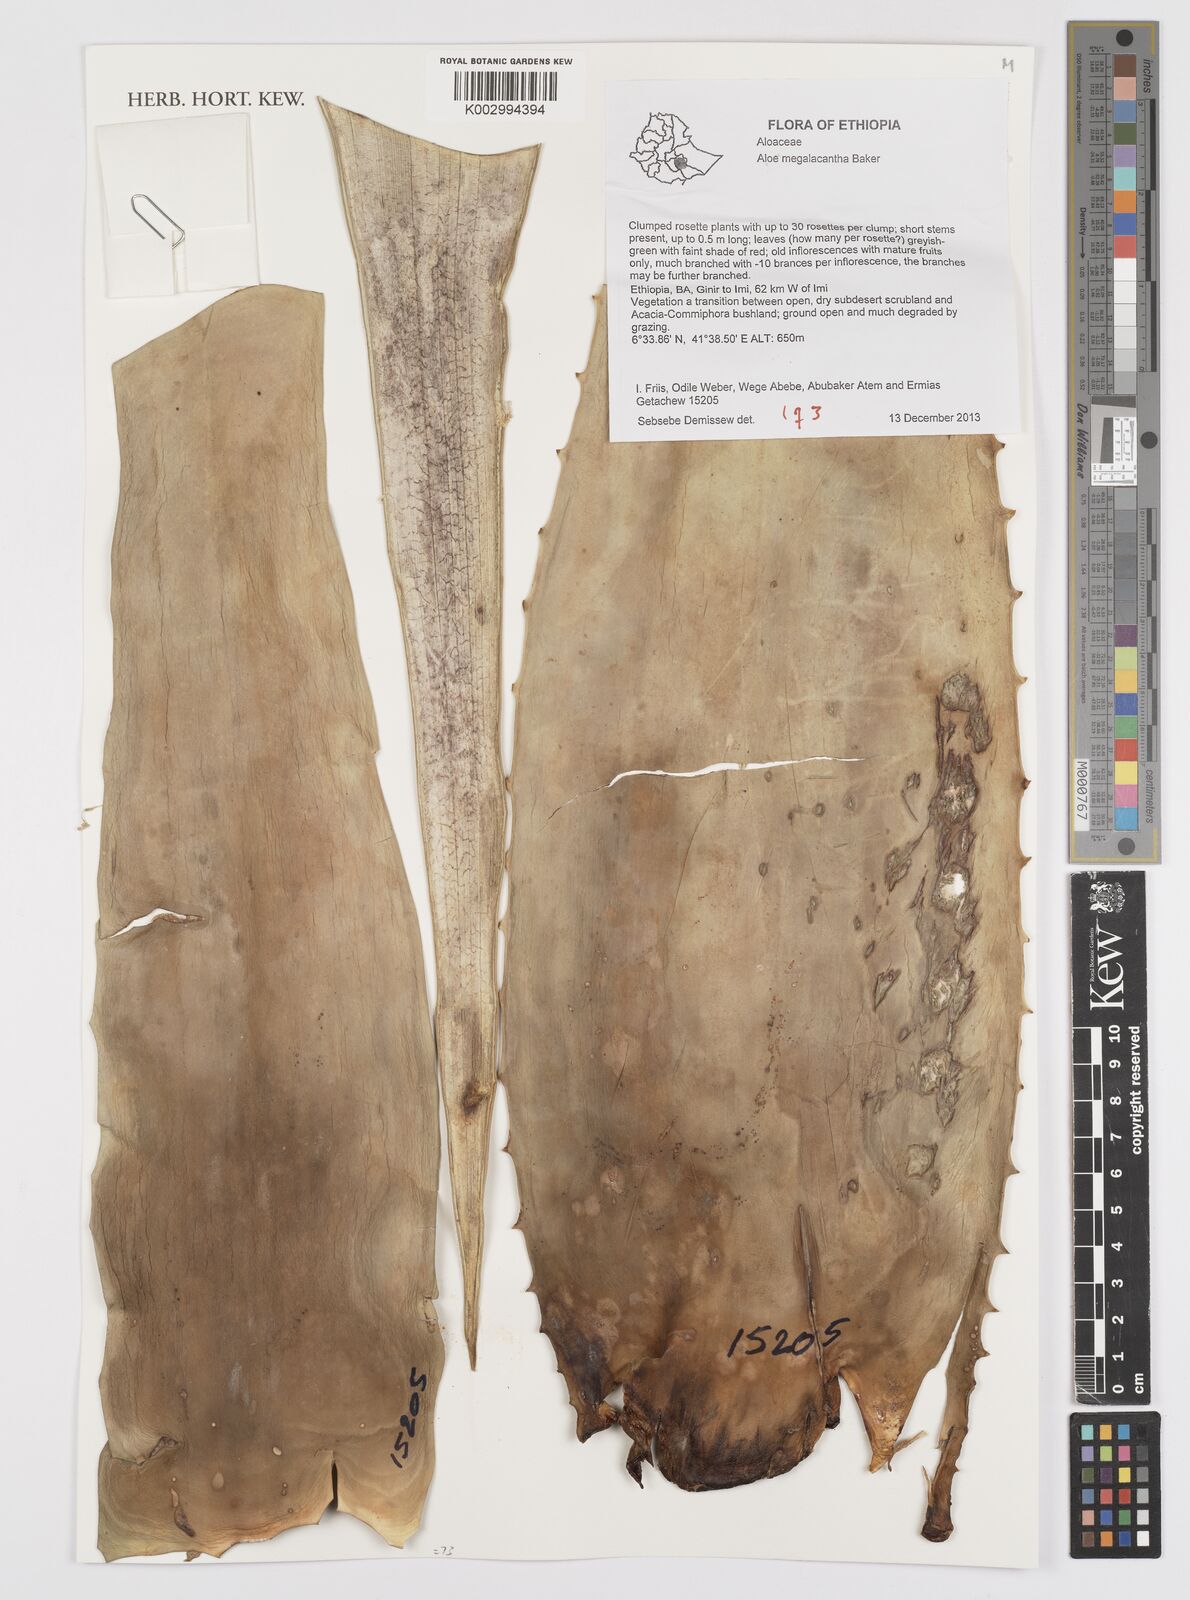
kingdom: Plantae
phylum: Tracheophyta
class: Liliopsida
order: Asparagales
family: Asphodelaceae
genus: Aloe
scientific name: Aloe megalacantha
